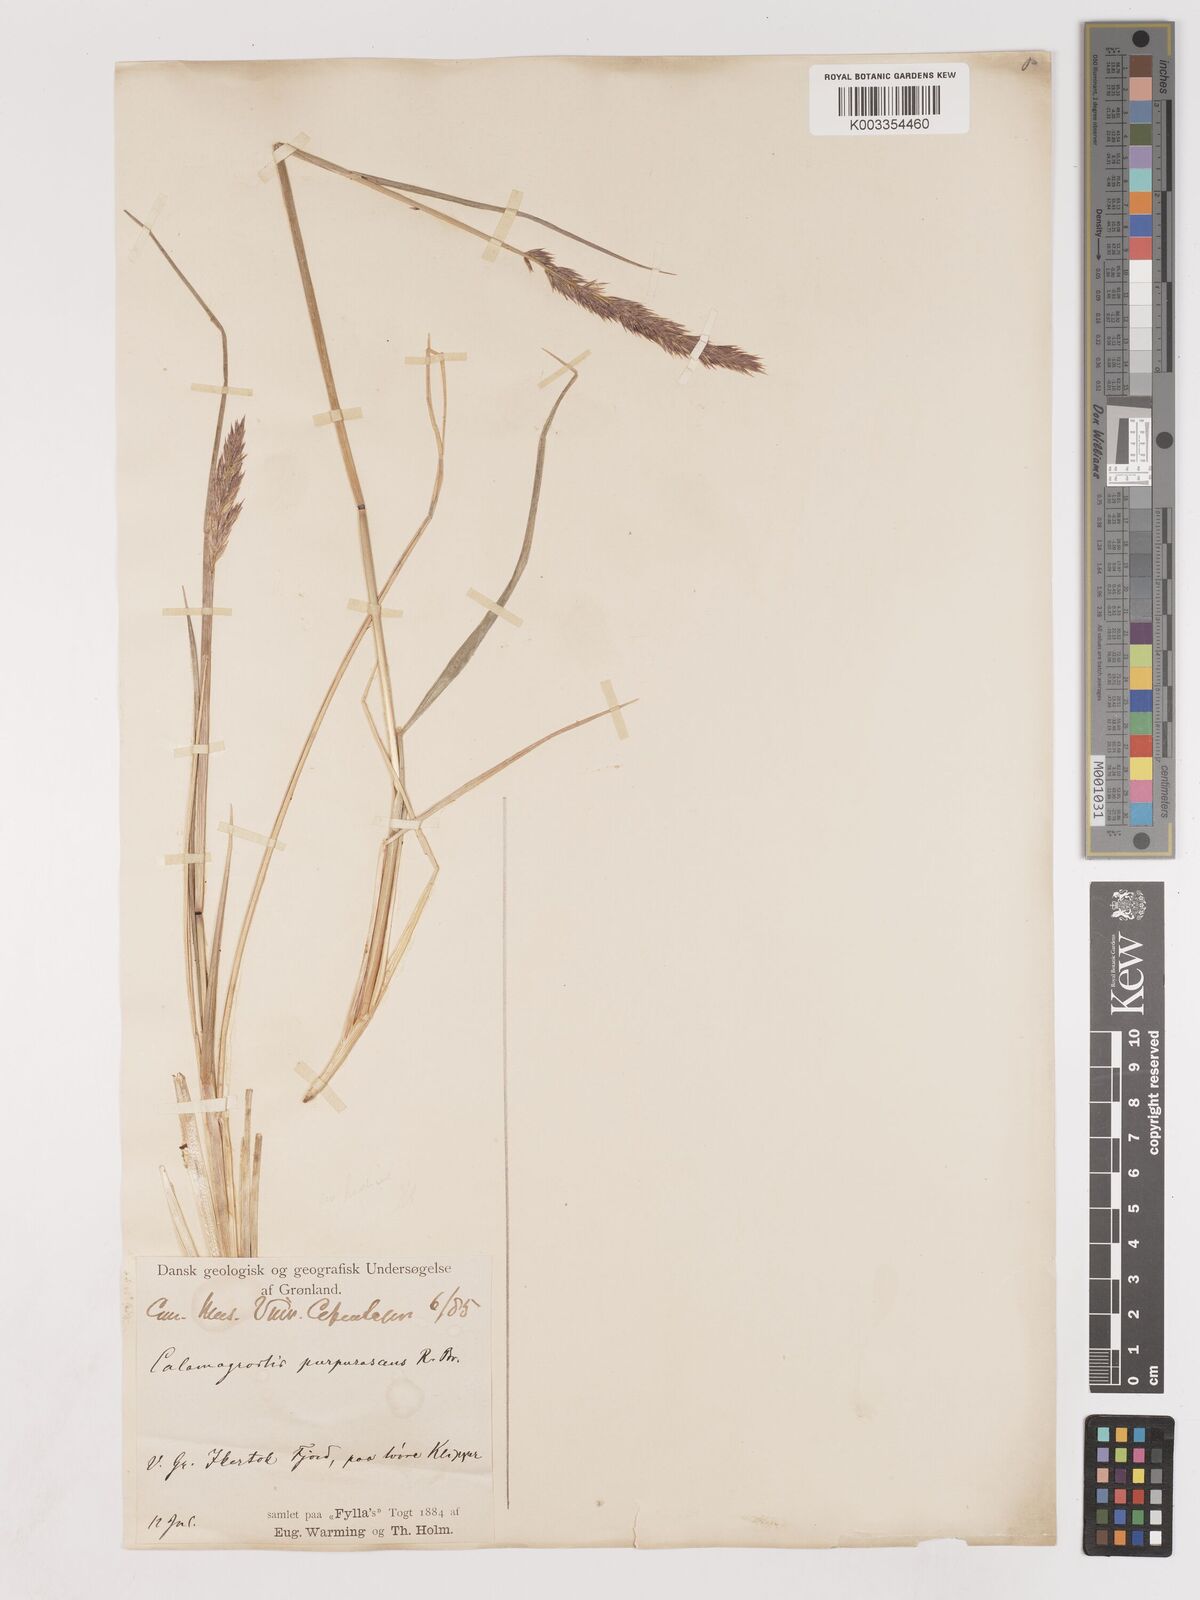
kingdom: Plantae
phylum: Tracheophyta
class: Liliopsida
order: Poales
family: Poaceae
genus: Calamagrostis
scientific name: Calamagrostis purpurascens
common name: Purple reedgrass
